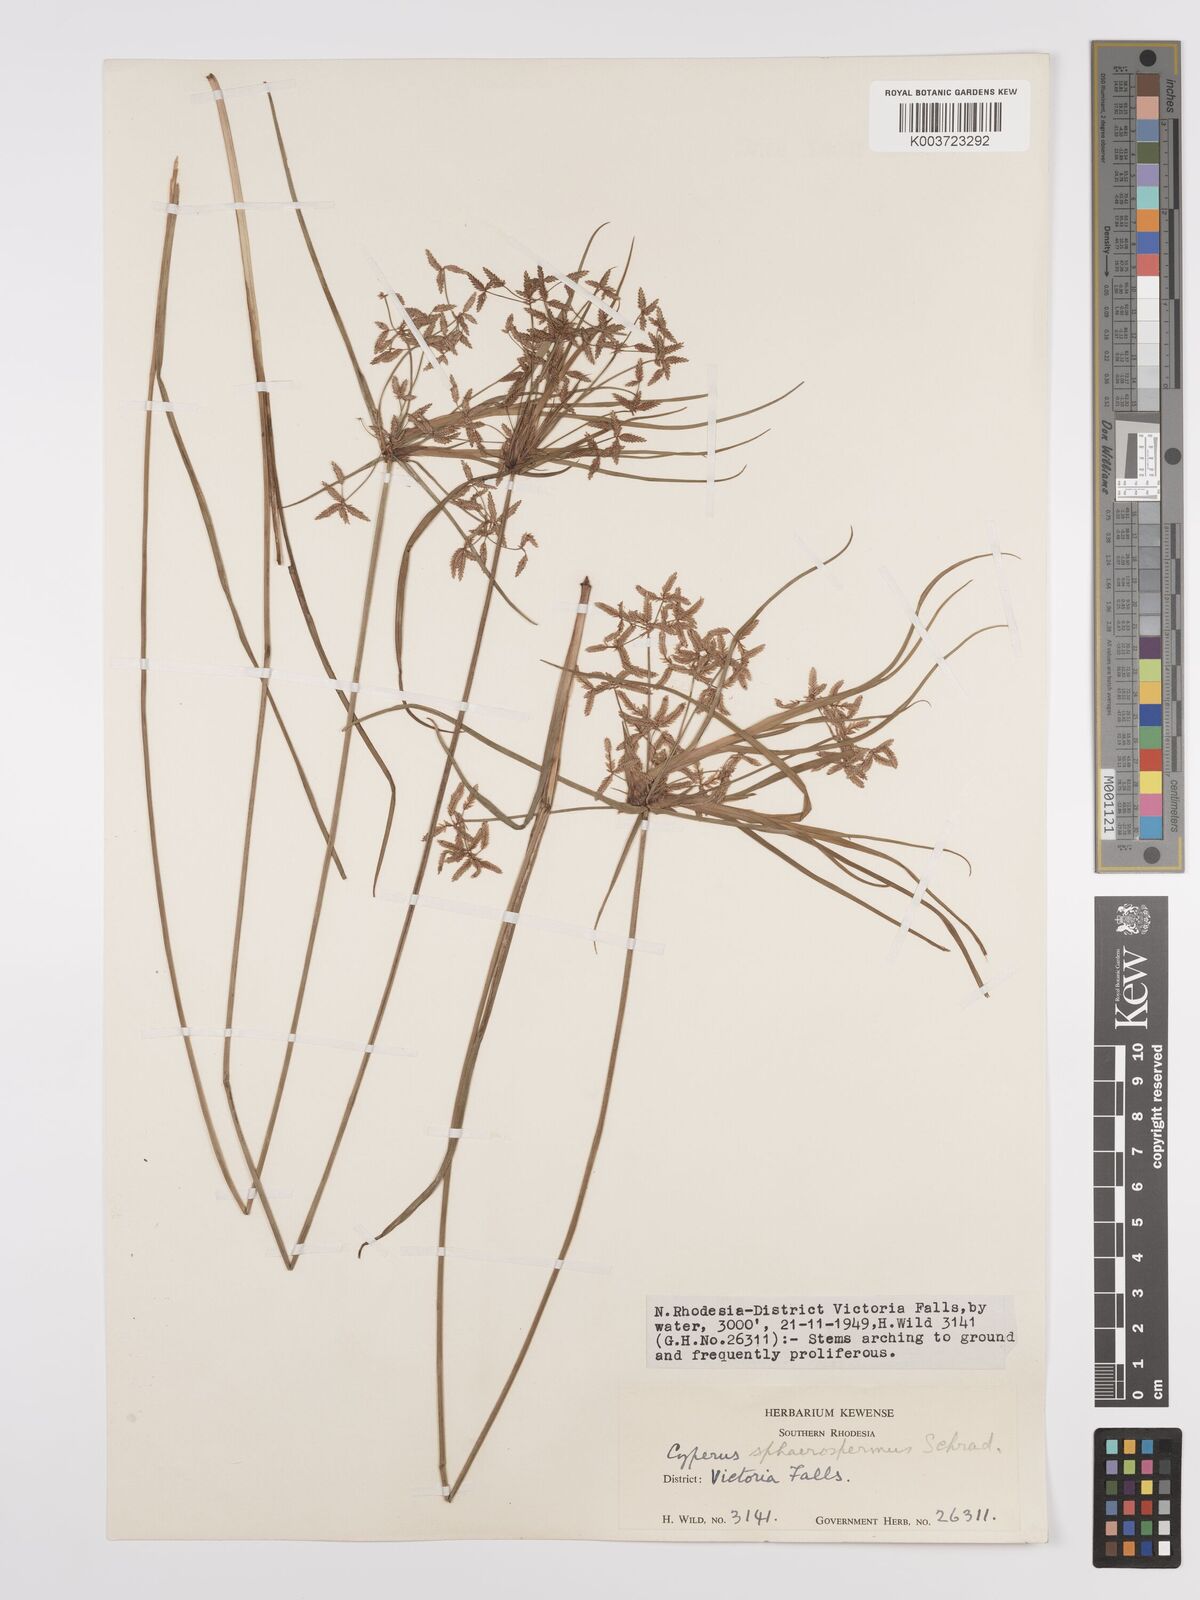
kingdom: Plantae
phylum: Tracheophyta
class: Liliopsida
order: Poales
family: Cyperaceae
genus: Cyperus
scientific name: Cyperus denudatus
